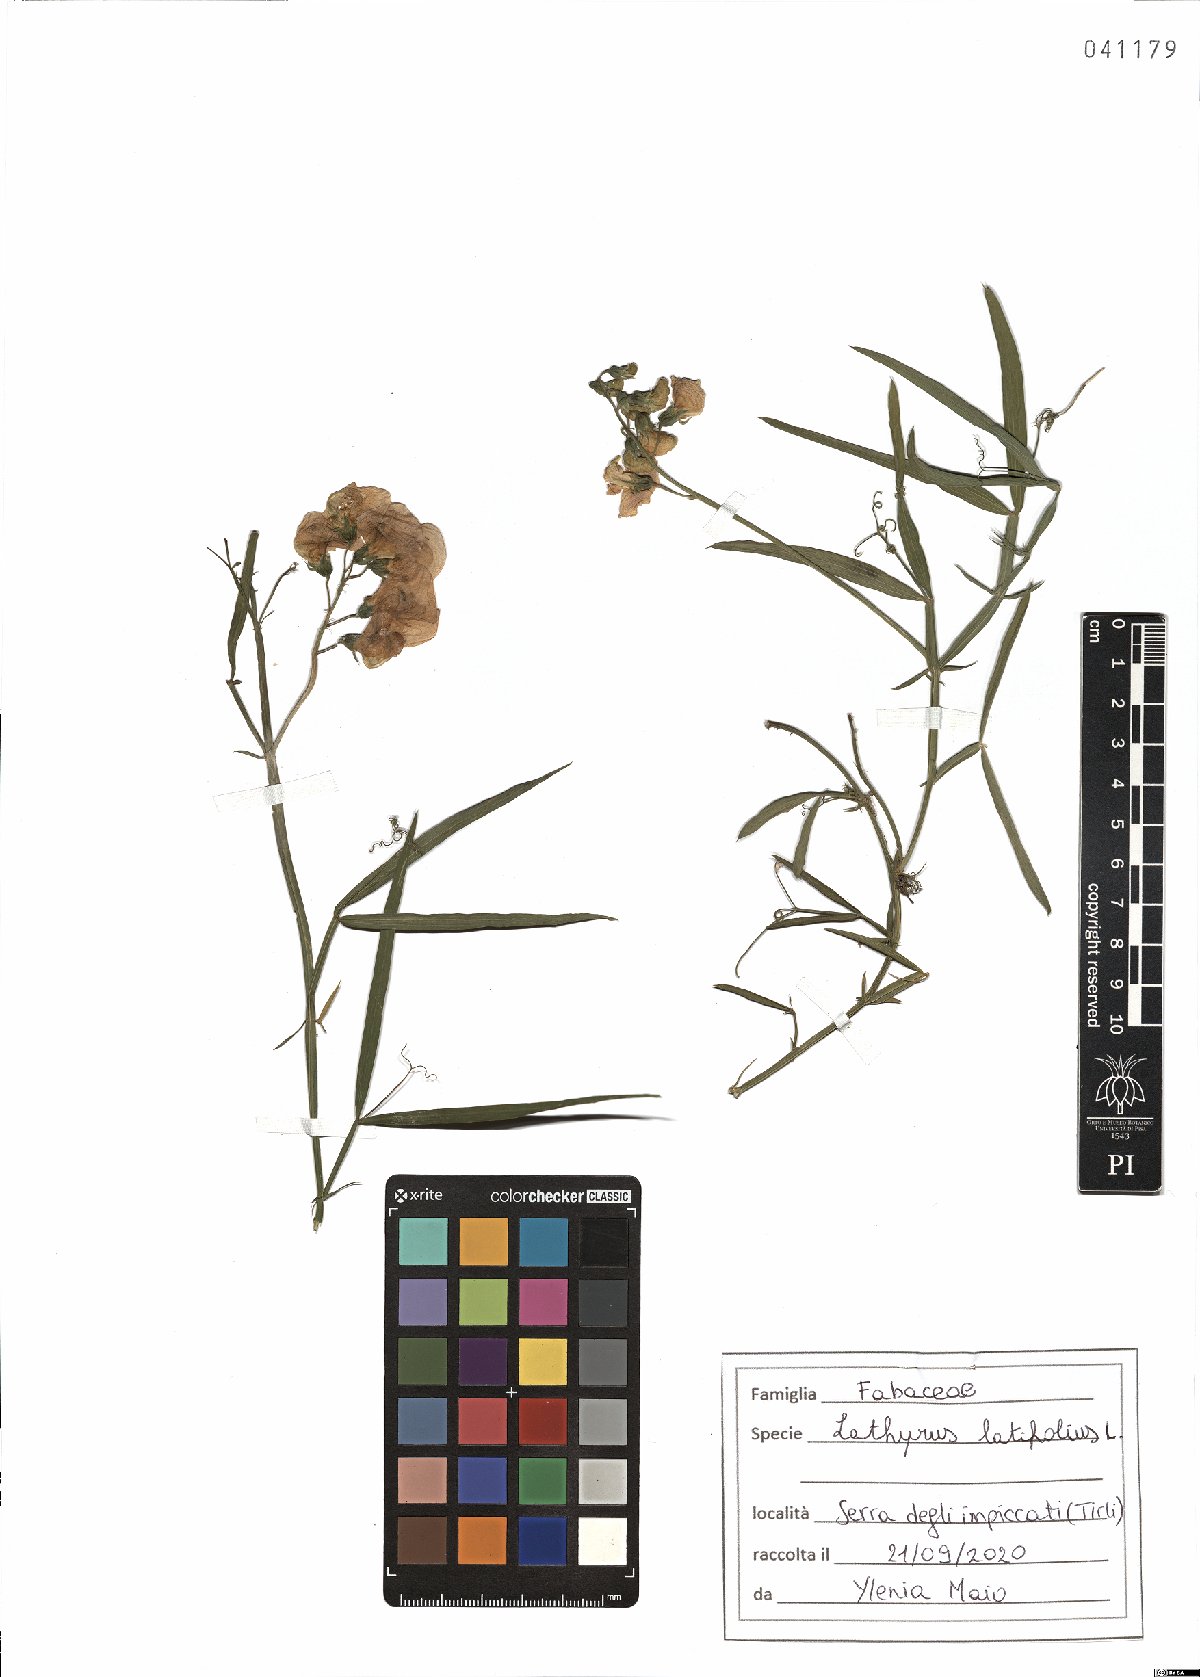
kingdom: Plantae
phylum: Tracheophyta
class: Magnoliopsida
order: Fabales
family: Fabaceae
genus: Lathyrus
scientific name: Lathyrus latifolius
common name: Perennial pea
